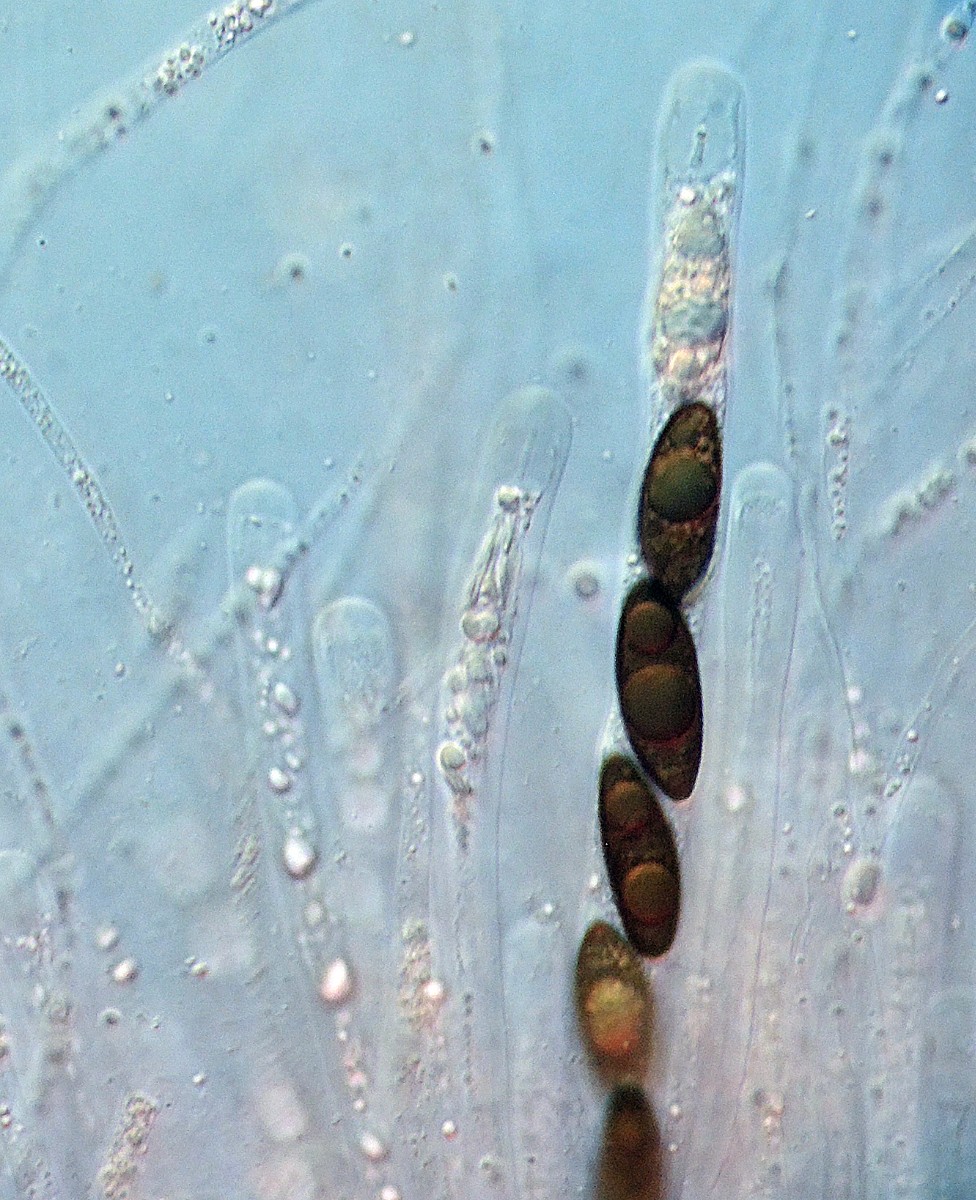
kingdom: Fungi
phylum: Ascomycota
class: Sordariomycetes
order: Xylariales
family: Xylariaceae
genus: Rosellinia
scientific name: Rosellinia aquila
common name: tykskallet kulkaviar
